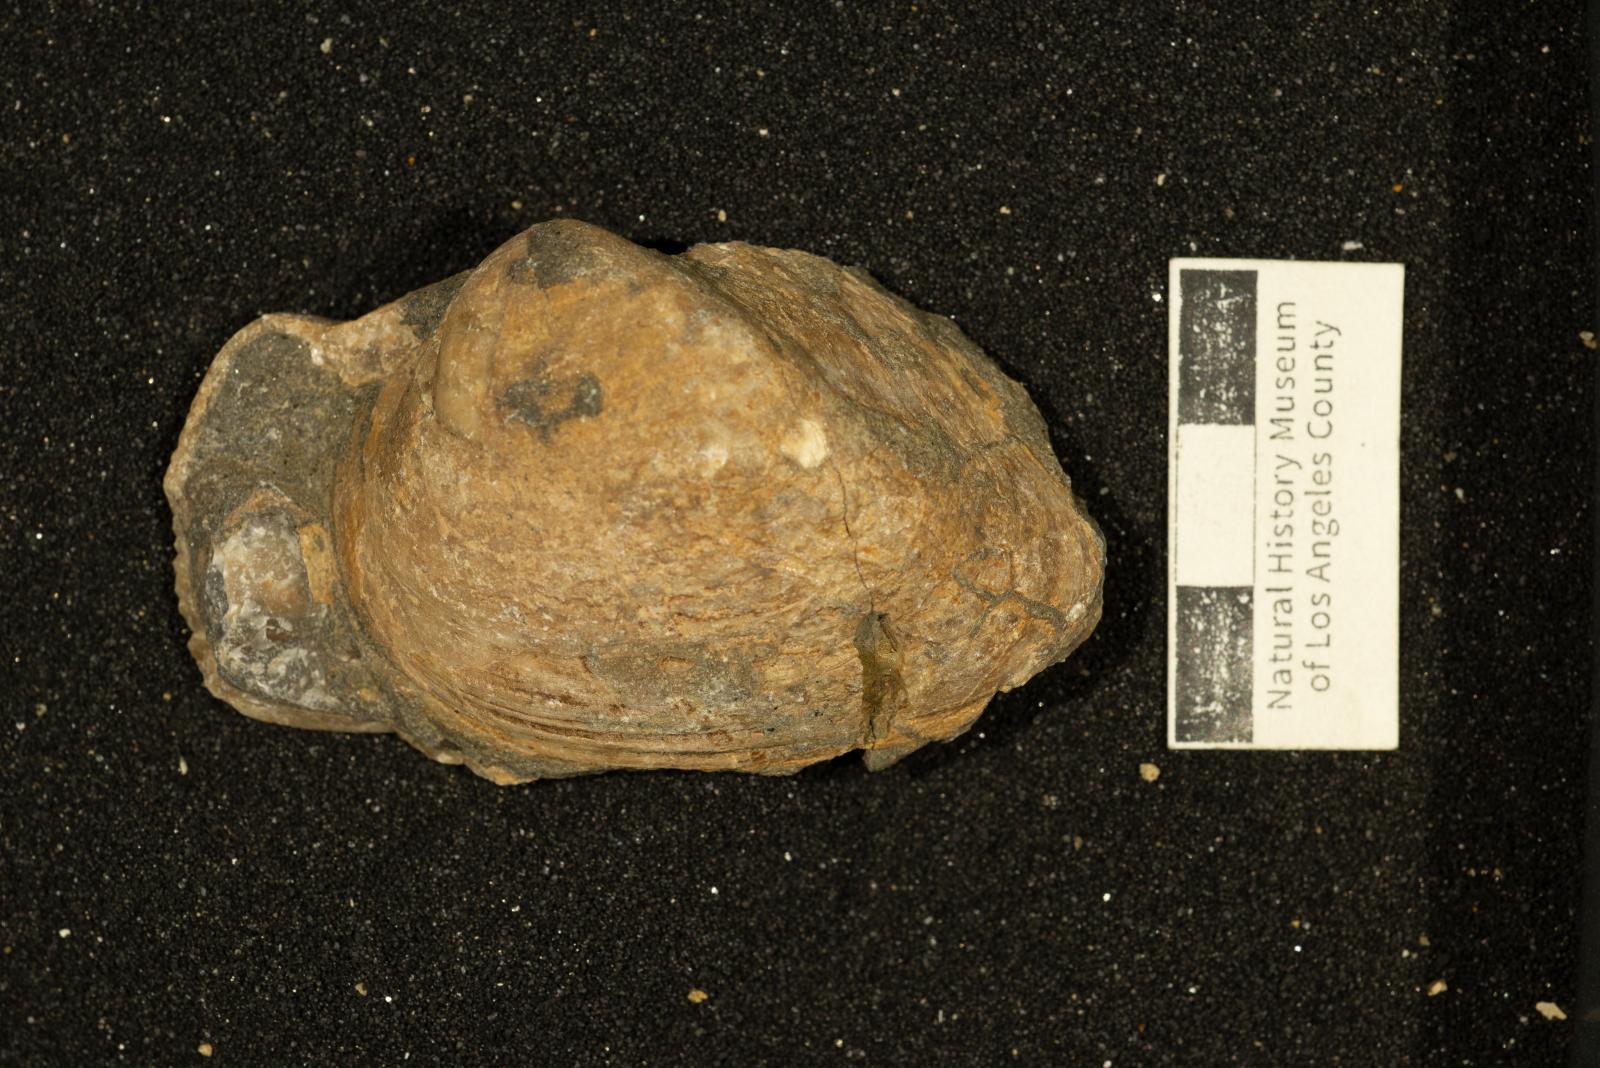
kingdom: Animalia
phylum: Mollusca
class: Bivalvia
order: Arcida
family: Cucullaeidae
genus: Idonearca
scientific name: Idonearca Arca gravida
